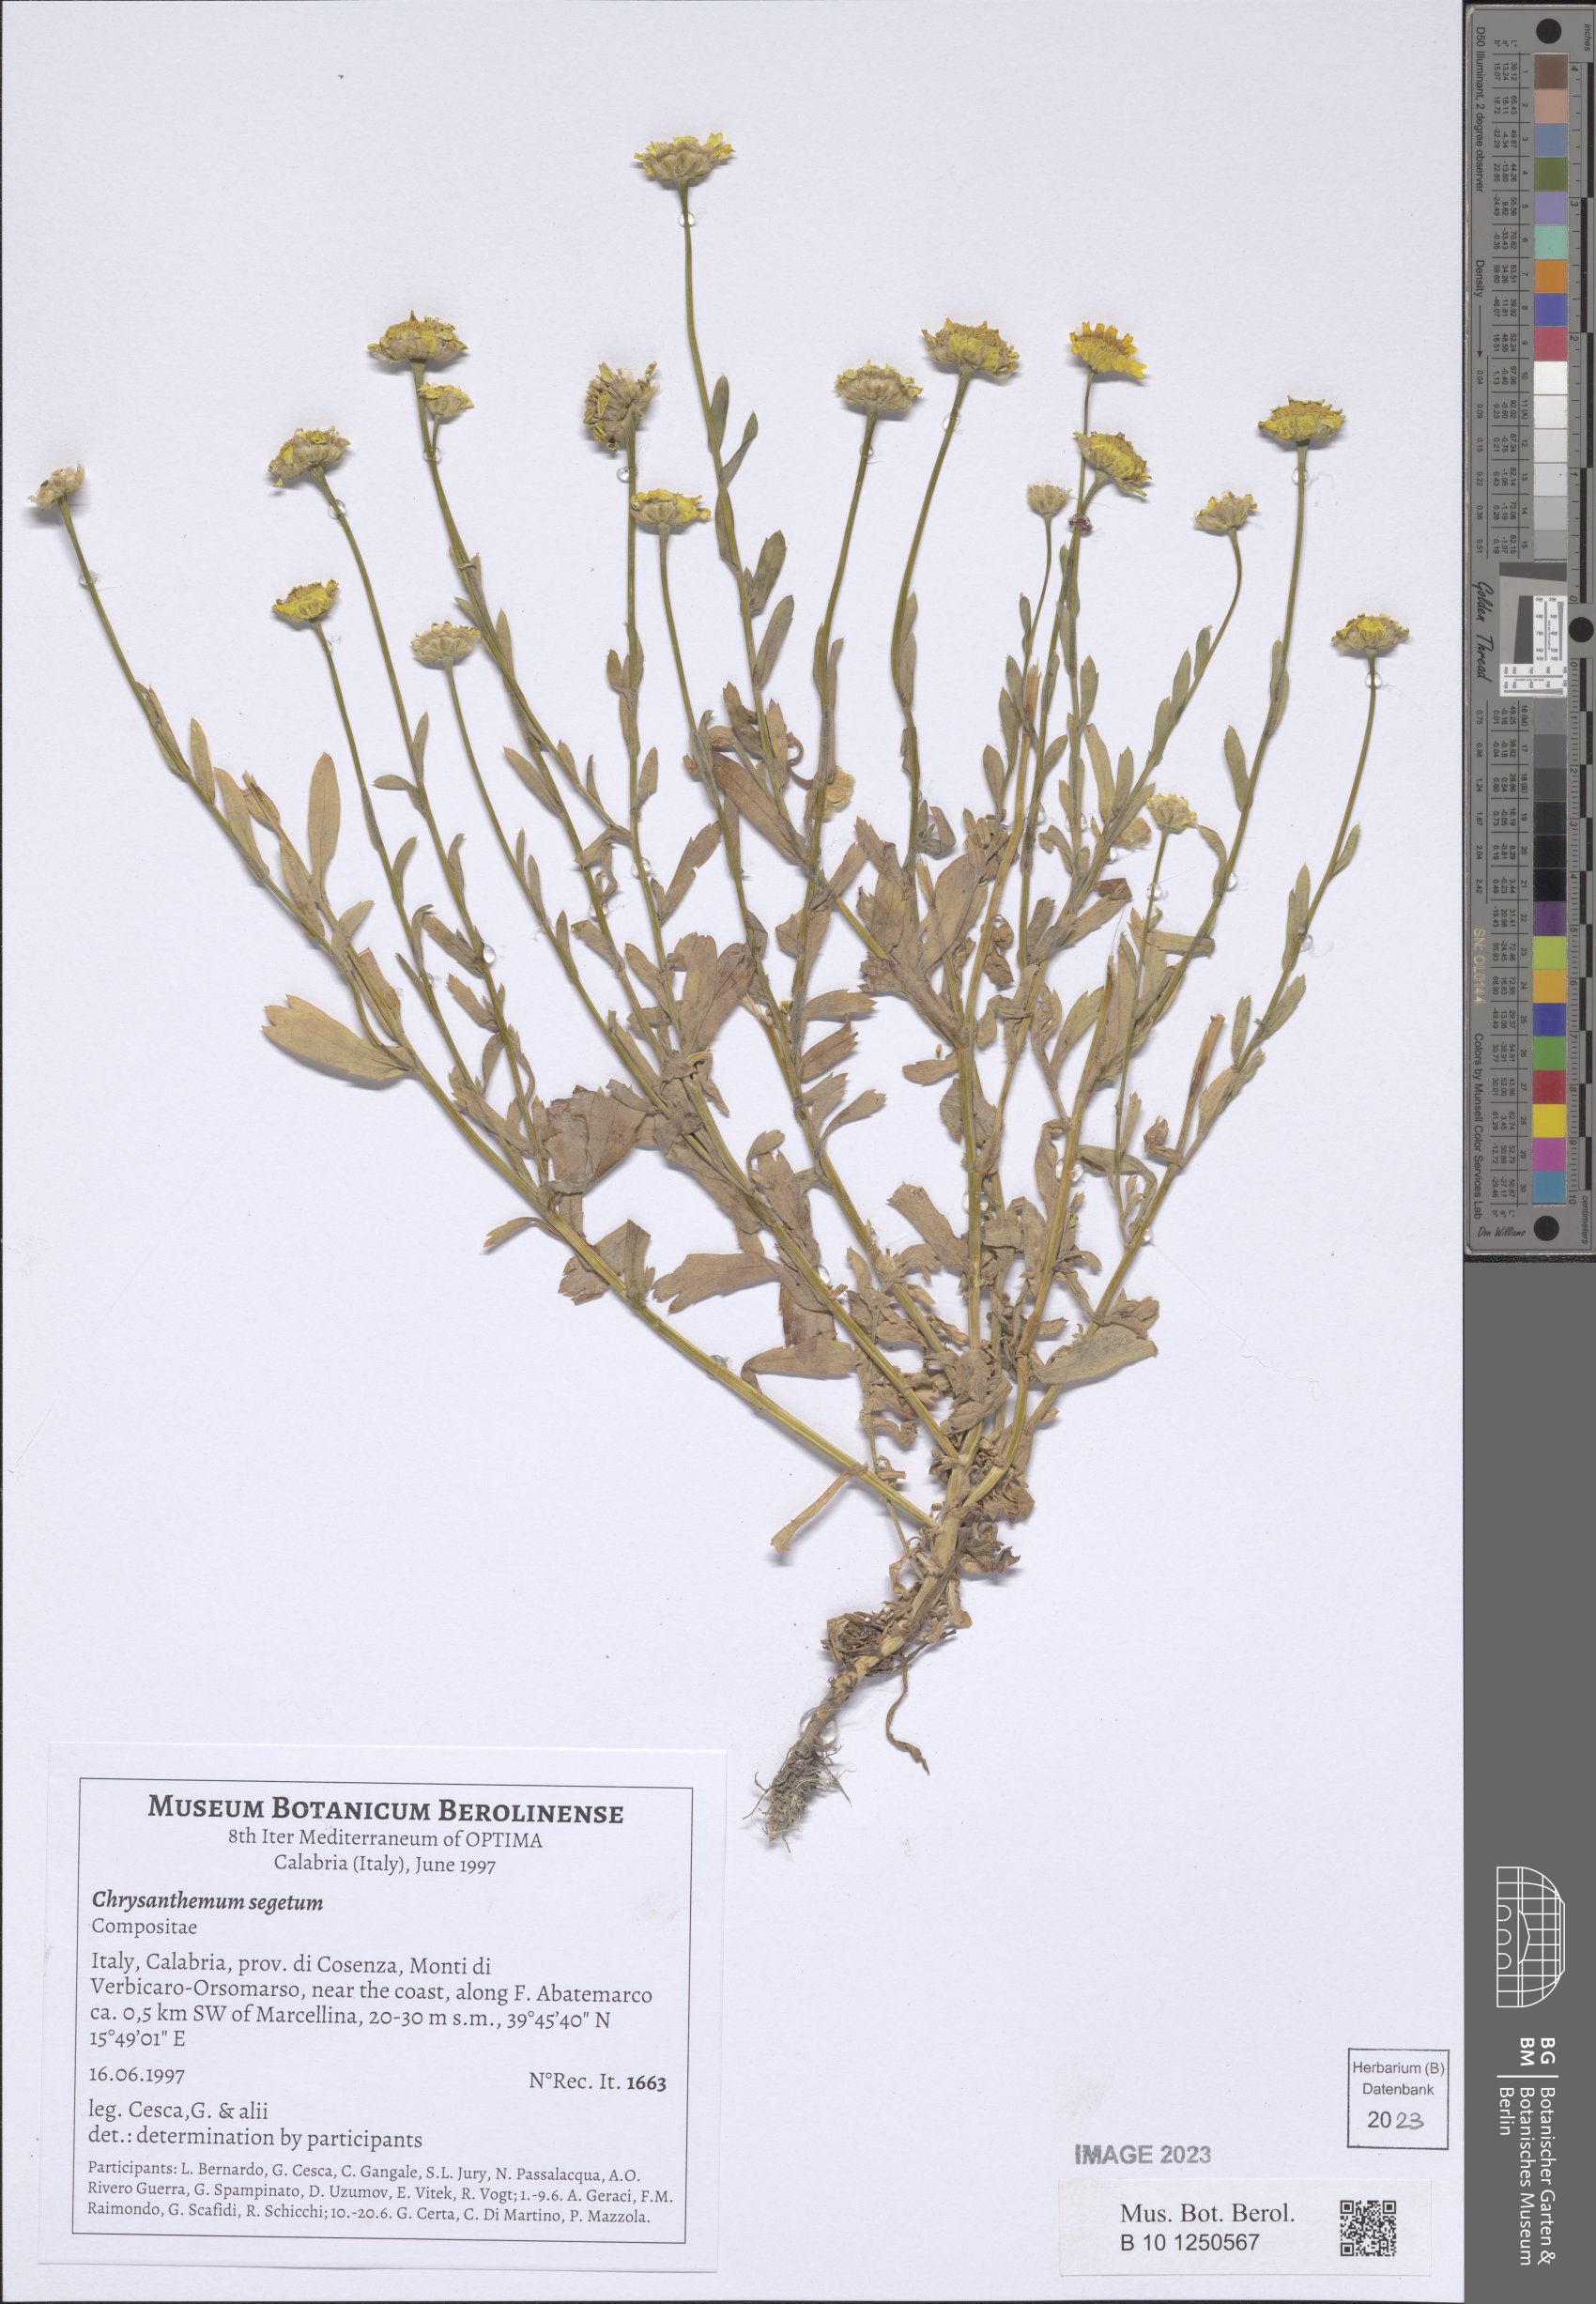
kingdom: Plantae
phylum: Tracheophyta
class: Magnoliopsida
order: Asterales
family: Asteraceae
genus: Glebionis
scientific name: Glebionis segetum
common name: Corndaisy
